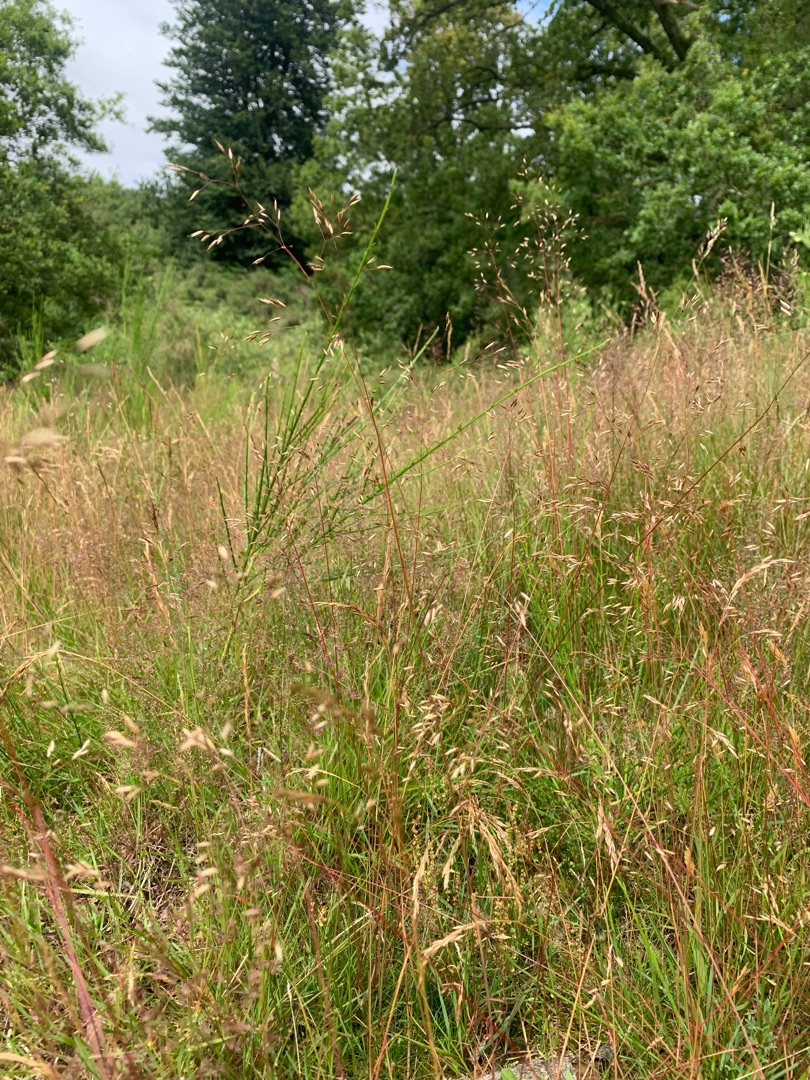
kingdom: Plantae
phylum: Tracheophyta
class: Liliopsida
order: Poales
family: Poaceae
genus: Avenella
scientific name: Avenella flexuosa
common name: Bølget bunke
